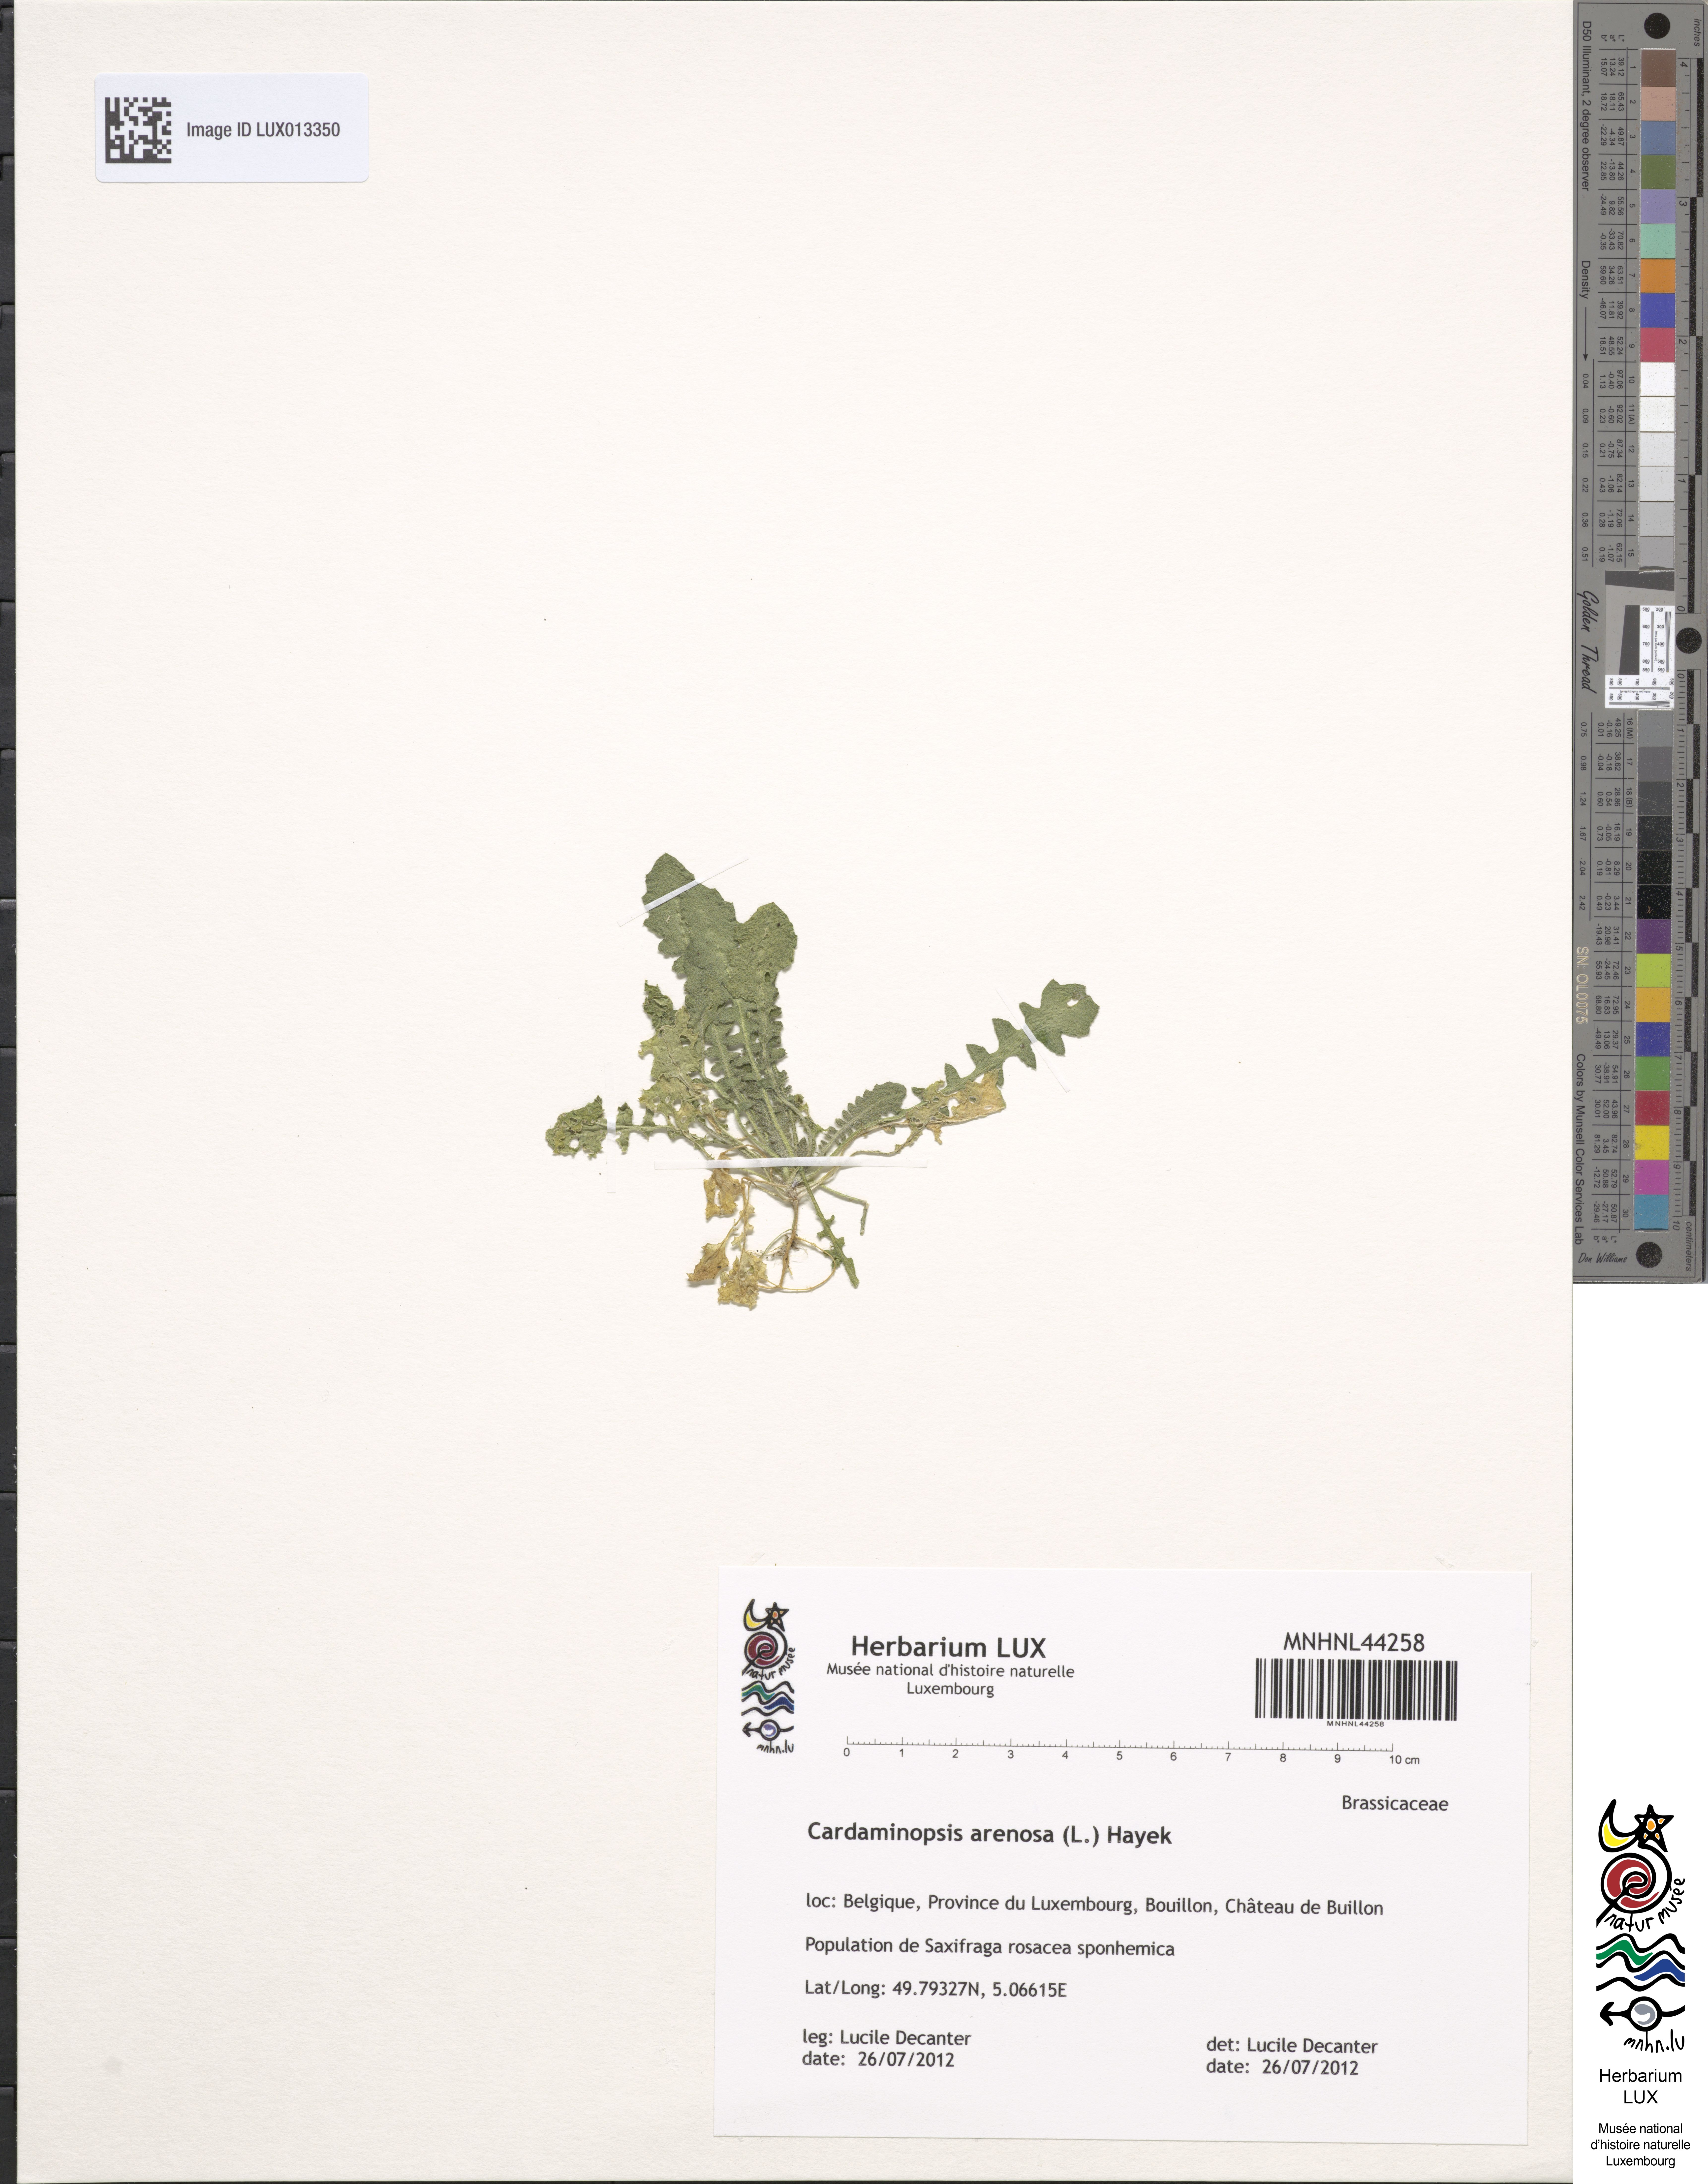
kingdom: Plantae
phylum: Tracheophyta
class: Magnoliopsida
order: Brassicales
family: Brassicaceae
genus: Arabidopsis
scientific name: Arabidopsis arenosa
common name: Sand rock-cress
